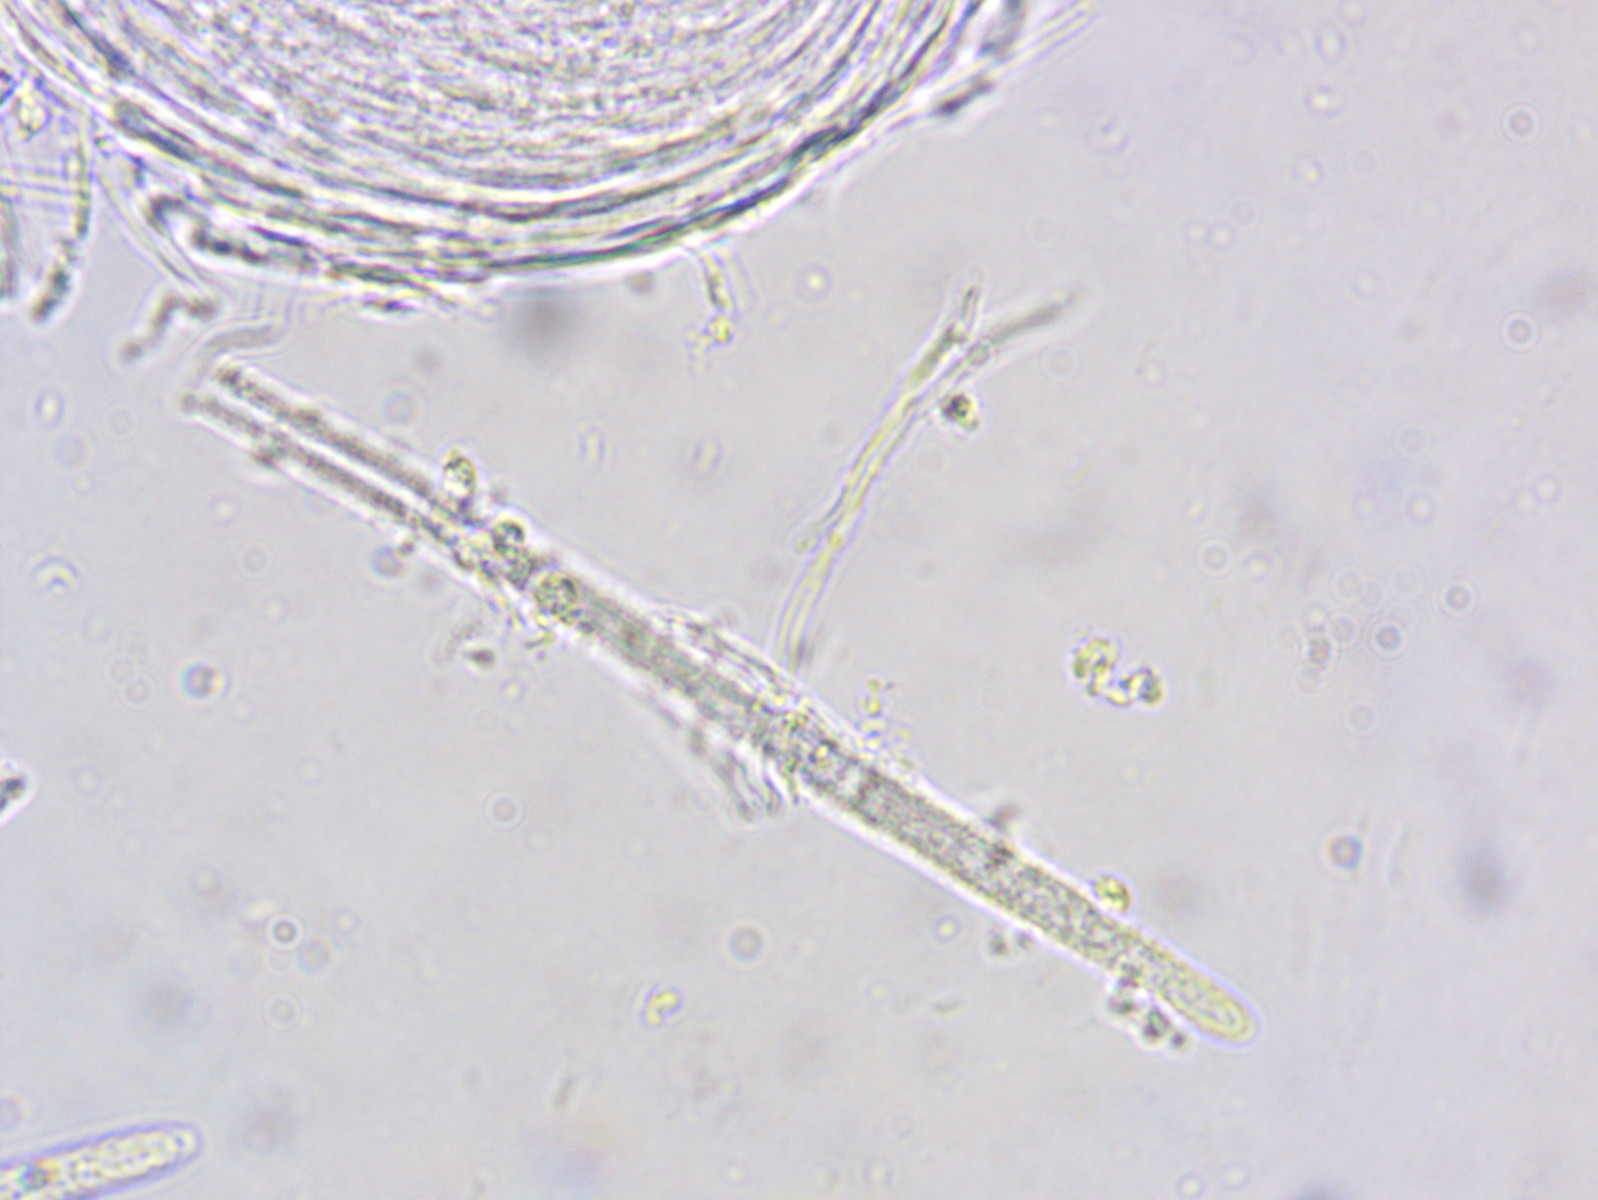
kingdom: Fungi
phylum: Ascomycota
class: Leotiomycetes
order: Helotiales
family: Lachnaceae
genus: Lachnum
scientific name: Lachnum virgineum
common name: jomfru-frynseskive
